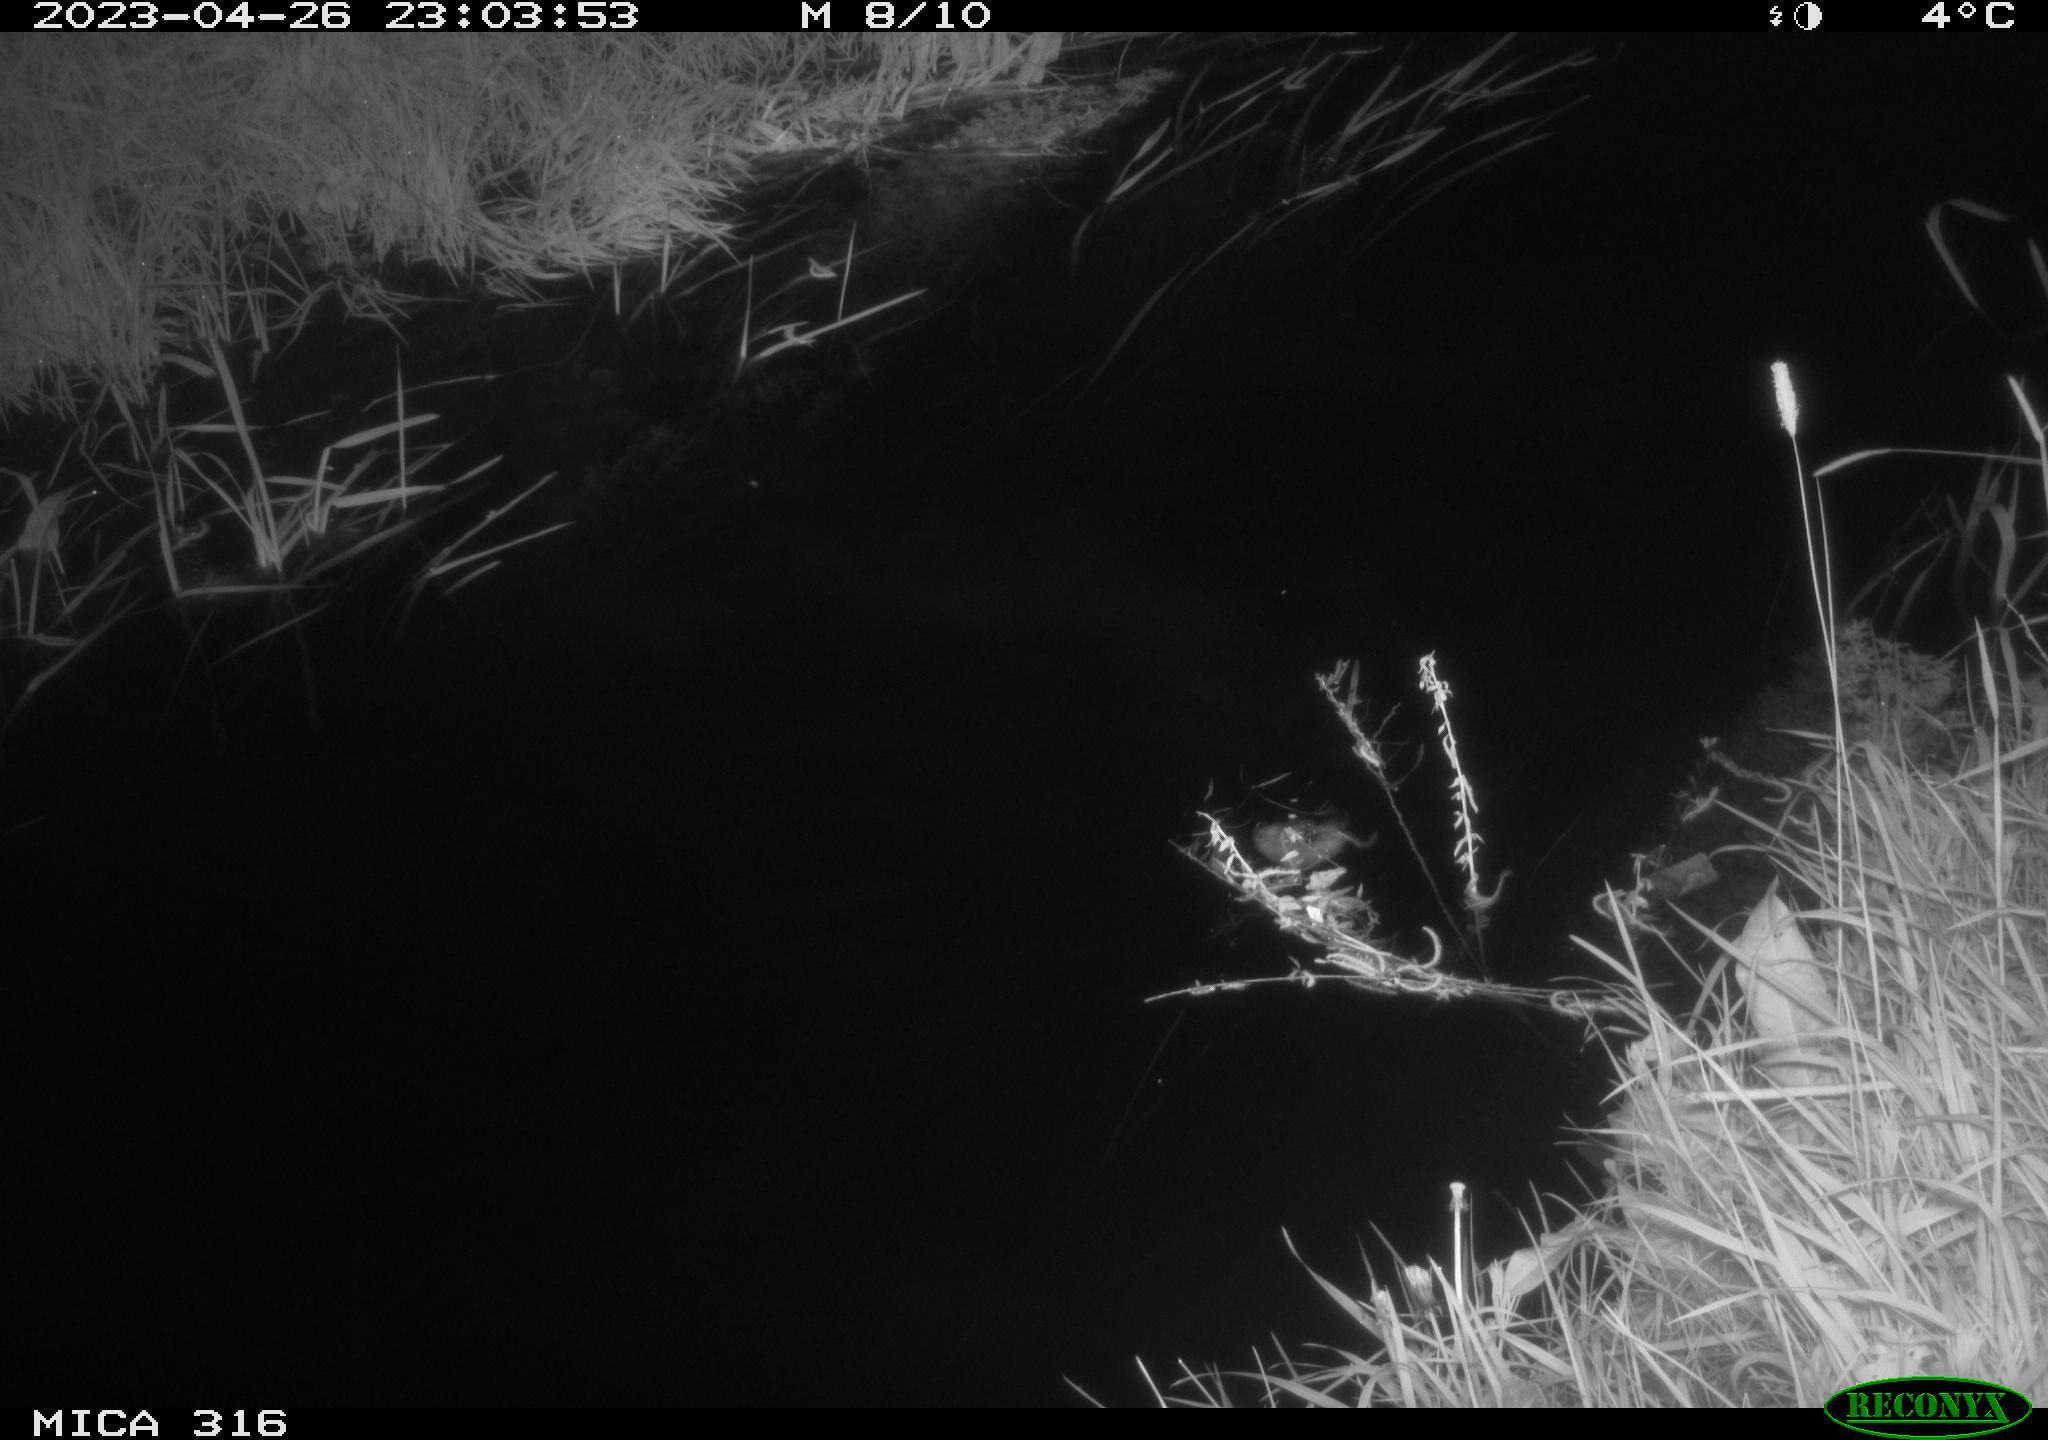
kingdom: Animalia
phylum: Chordata
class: Aves
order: Anseriformes
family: Anatidae
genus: Anas
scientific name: Anas
